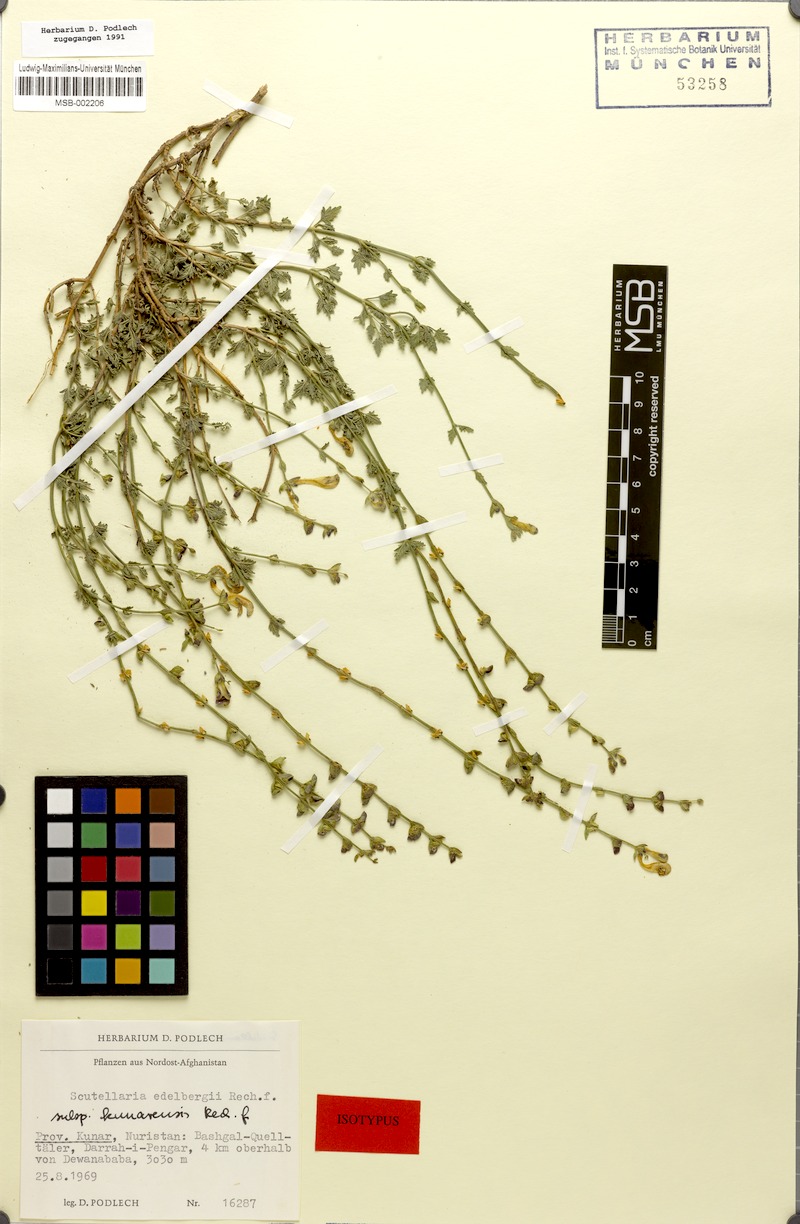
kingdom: Plantae
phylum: Tracheophyta
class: Magnoliopsida
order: Lamiales
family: Lamiaceae
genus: Scutellaria
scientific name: Scutellaria edelbergii
